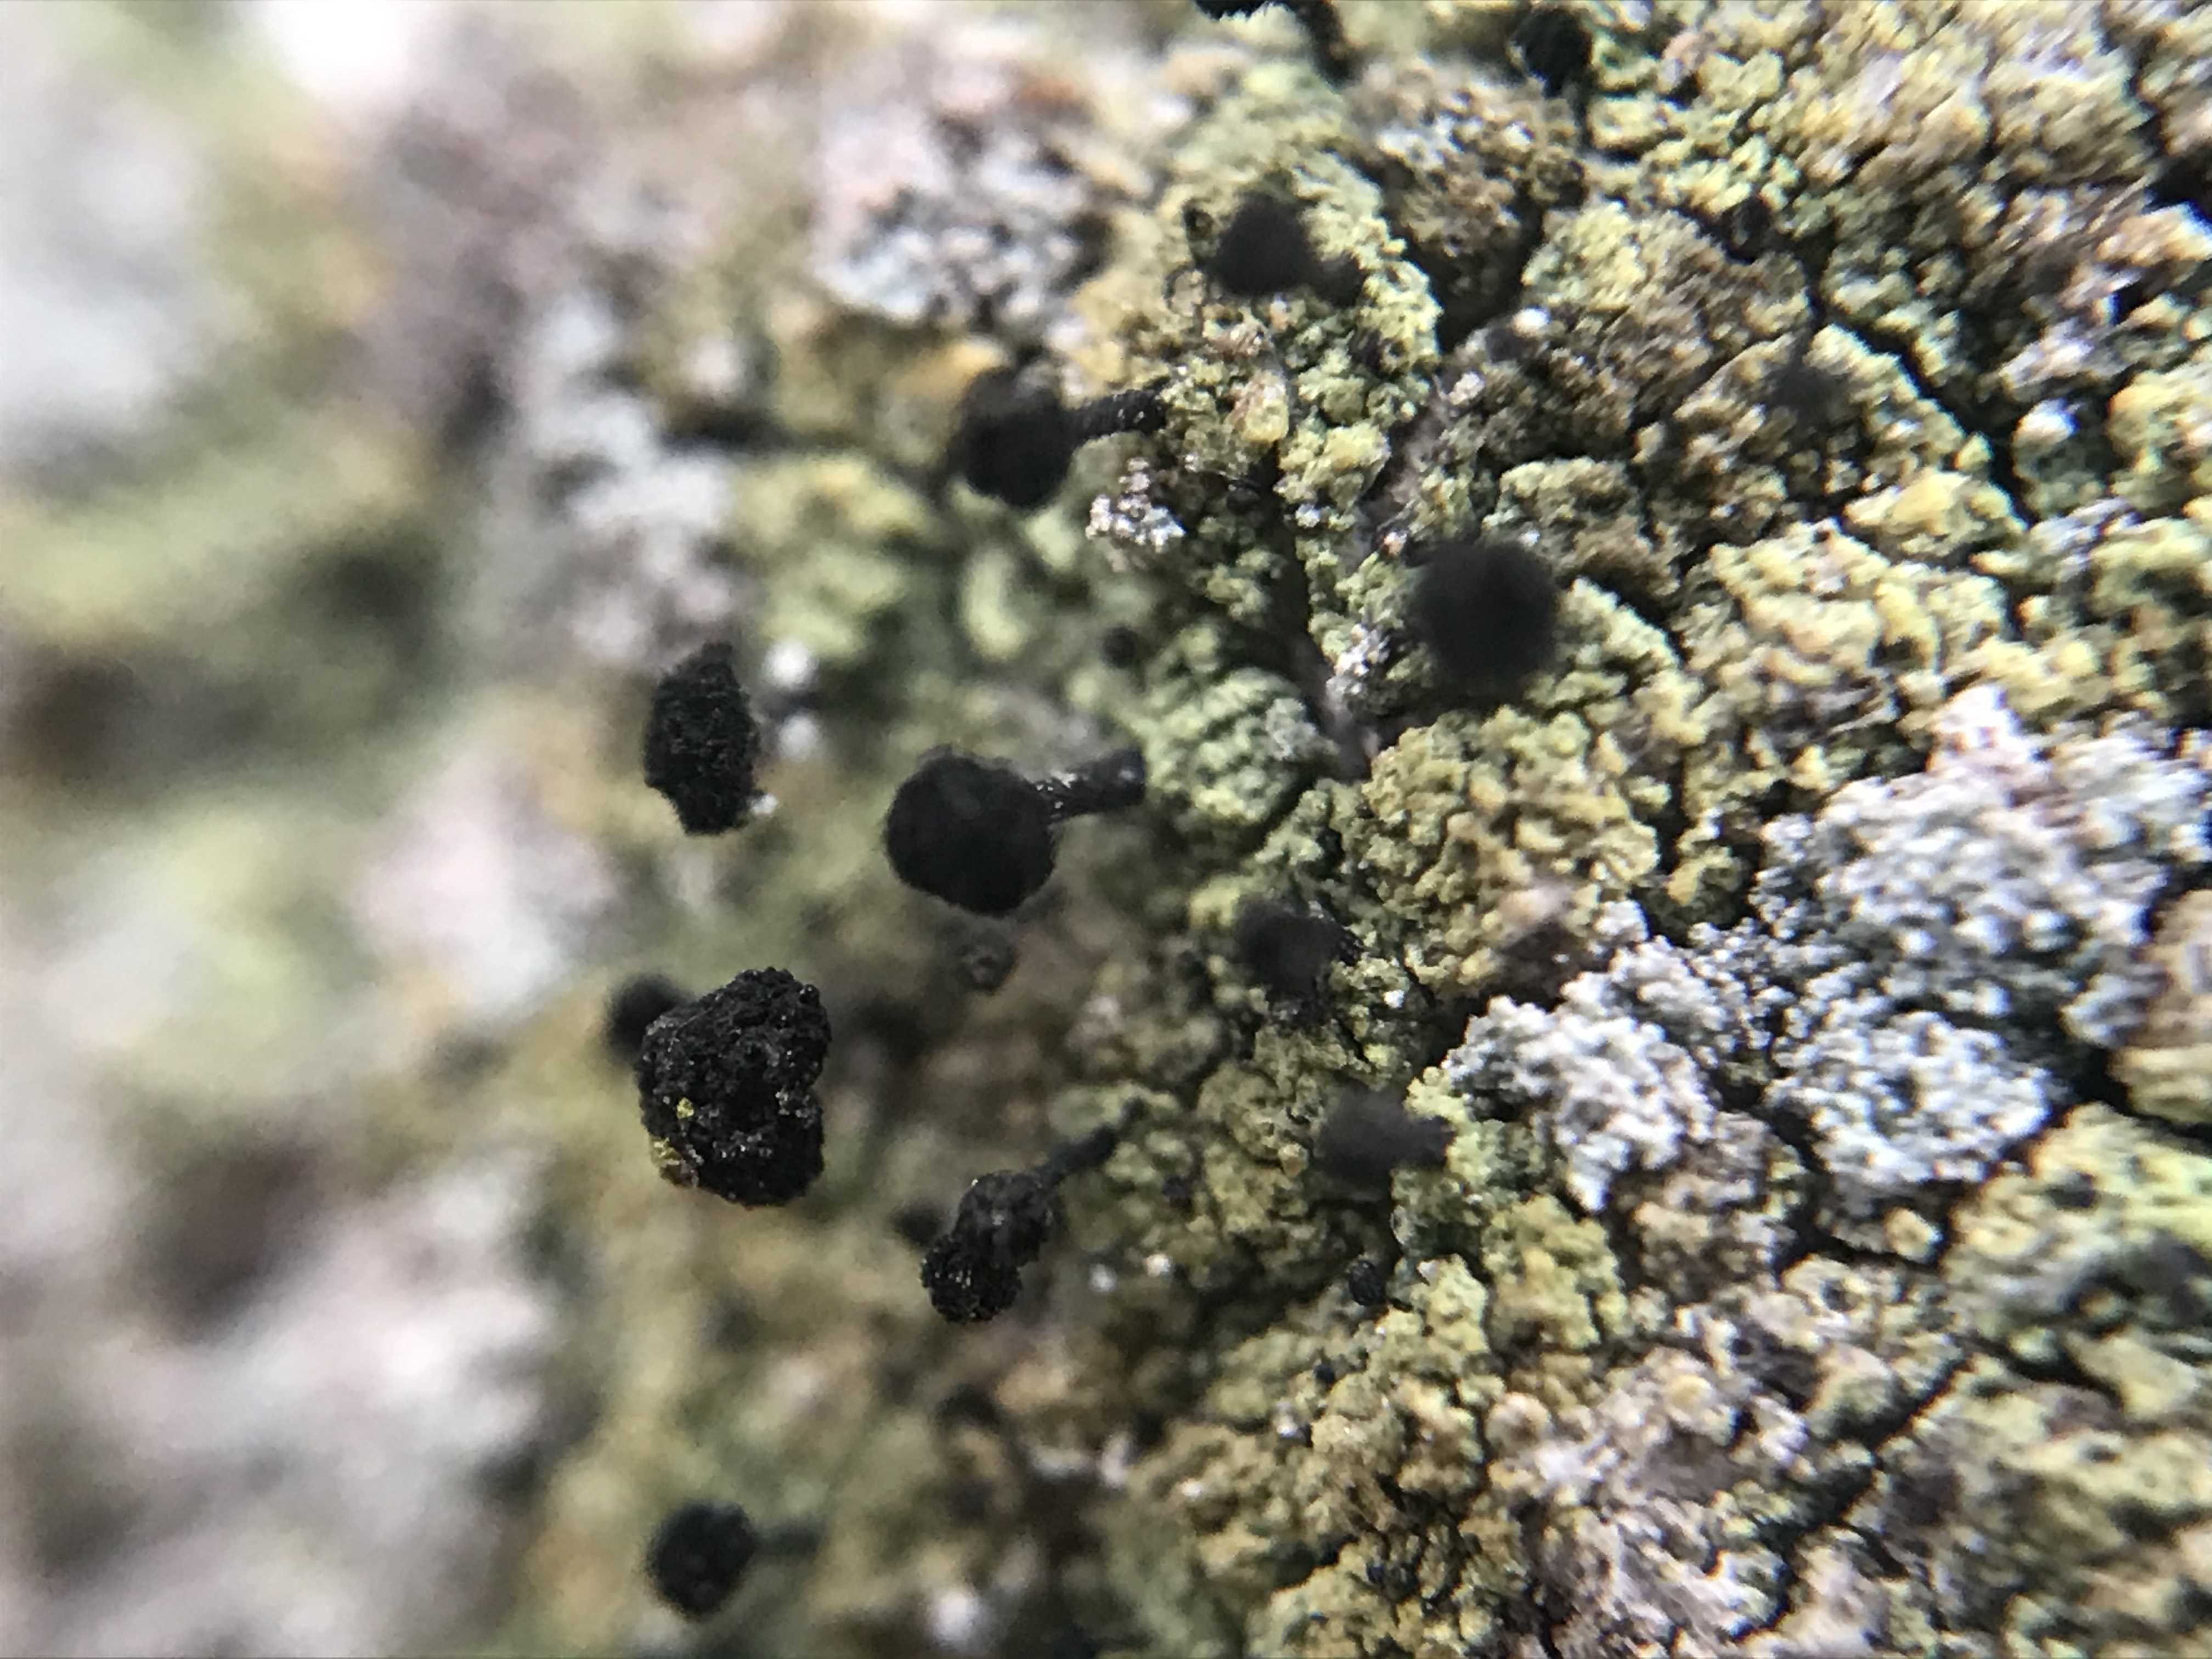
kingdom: Fungi
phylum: Ascomycota
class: Lecanoromycetes
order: Caliciales
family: Caliciaceae
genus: Calicium
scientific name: Calicium viride
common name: gulgrøn nålelav
